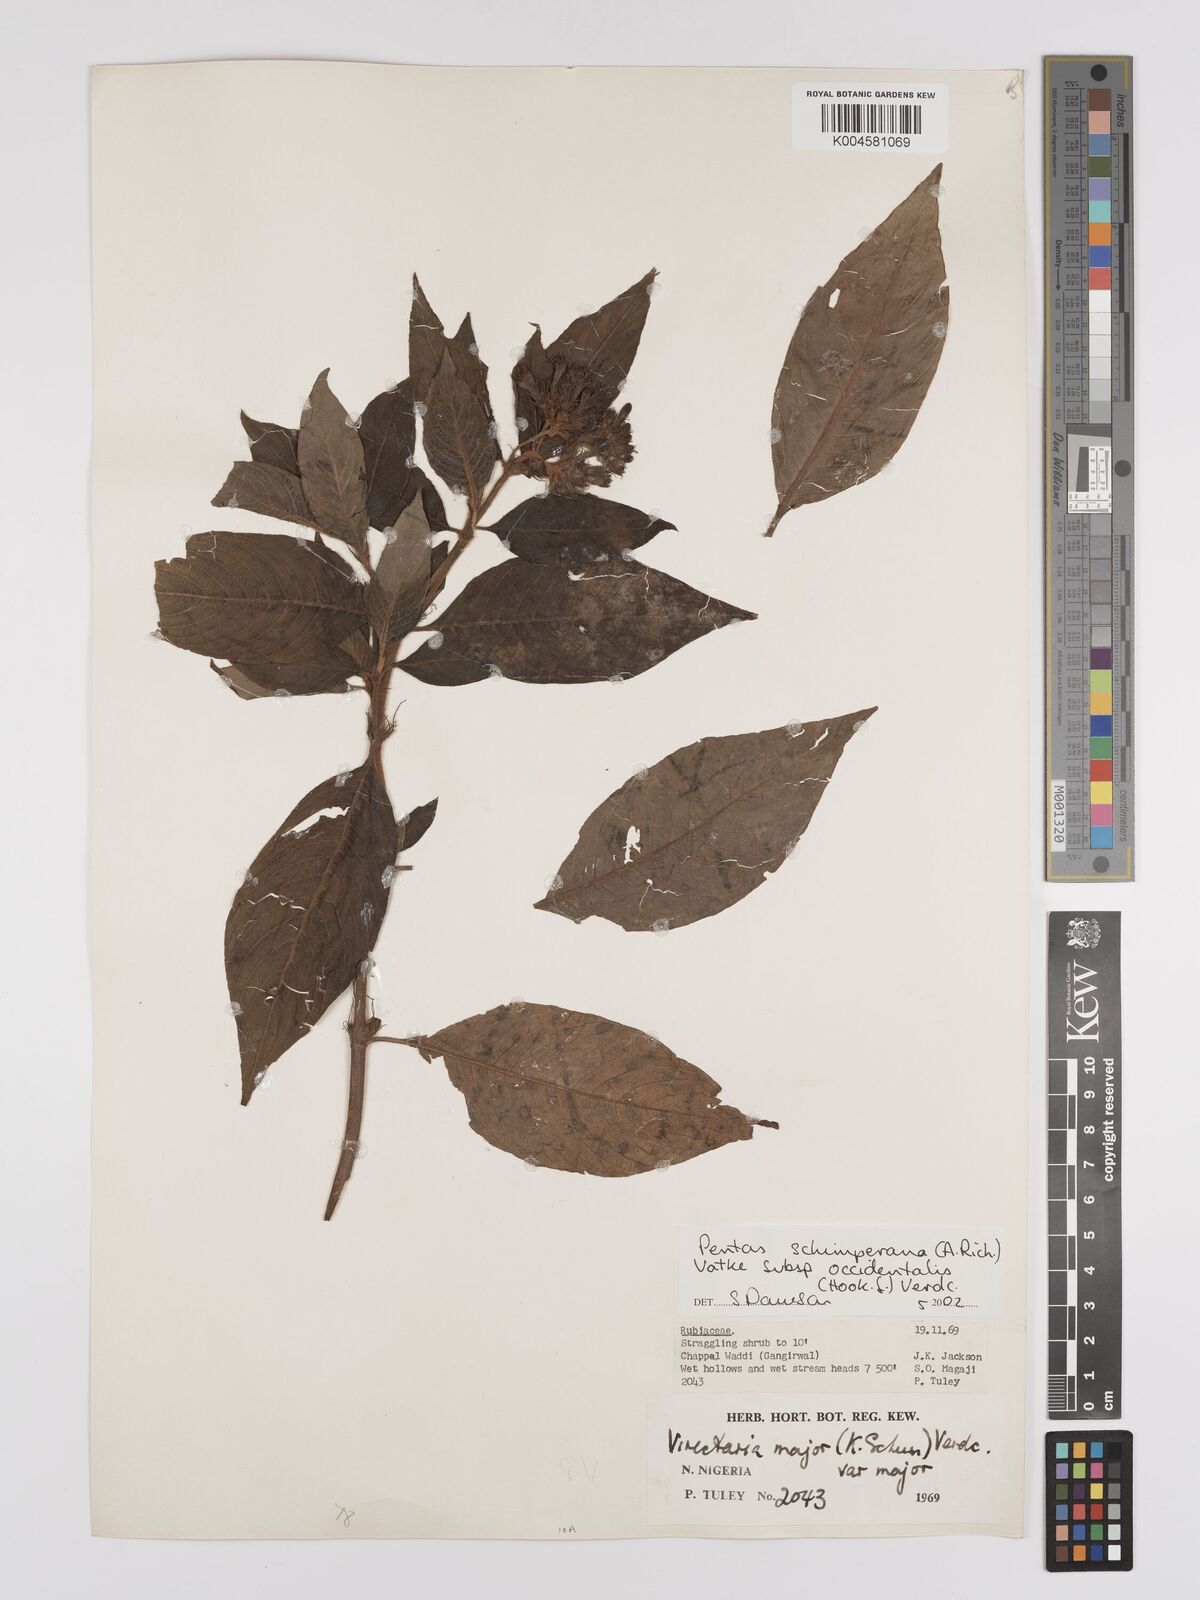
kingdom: Plantae
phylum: Tracheophyta
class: Magnoliopsida
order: Gentianales
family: Rubiaceae
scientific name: Rubiaceae
